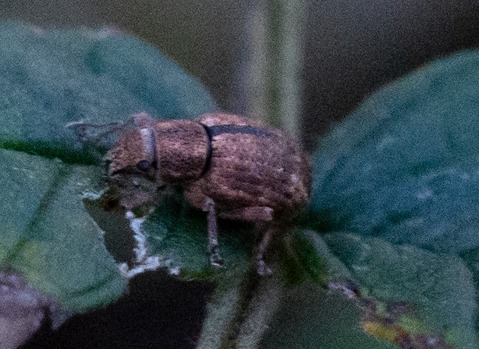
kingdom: Animalia
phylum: Arthropoda
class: Insecta
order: Coleoptera
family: Curculionidae
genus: Strophosoma
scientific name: Strophosoma melanogrammum
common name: Stribet gråsnude
